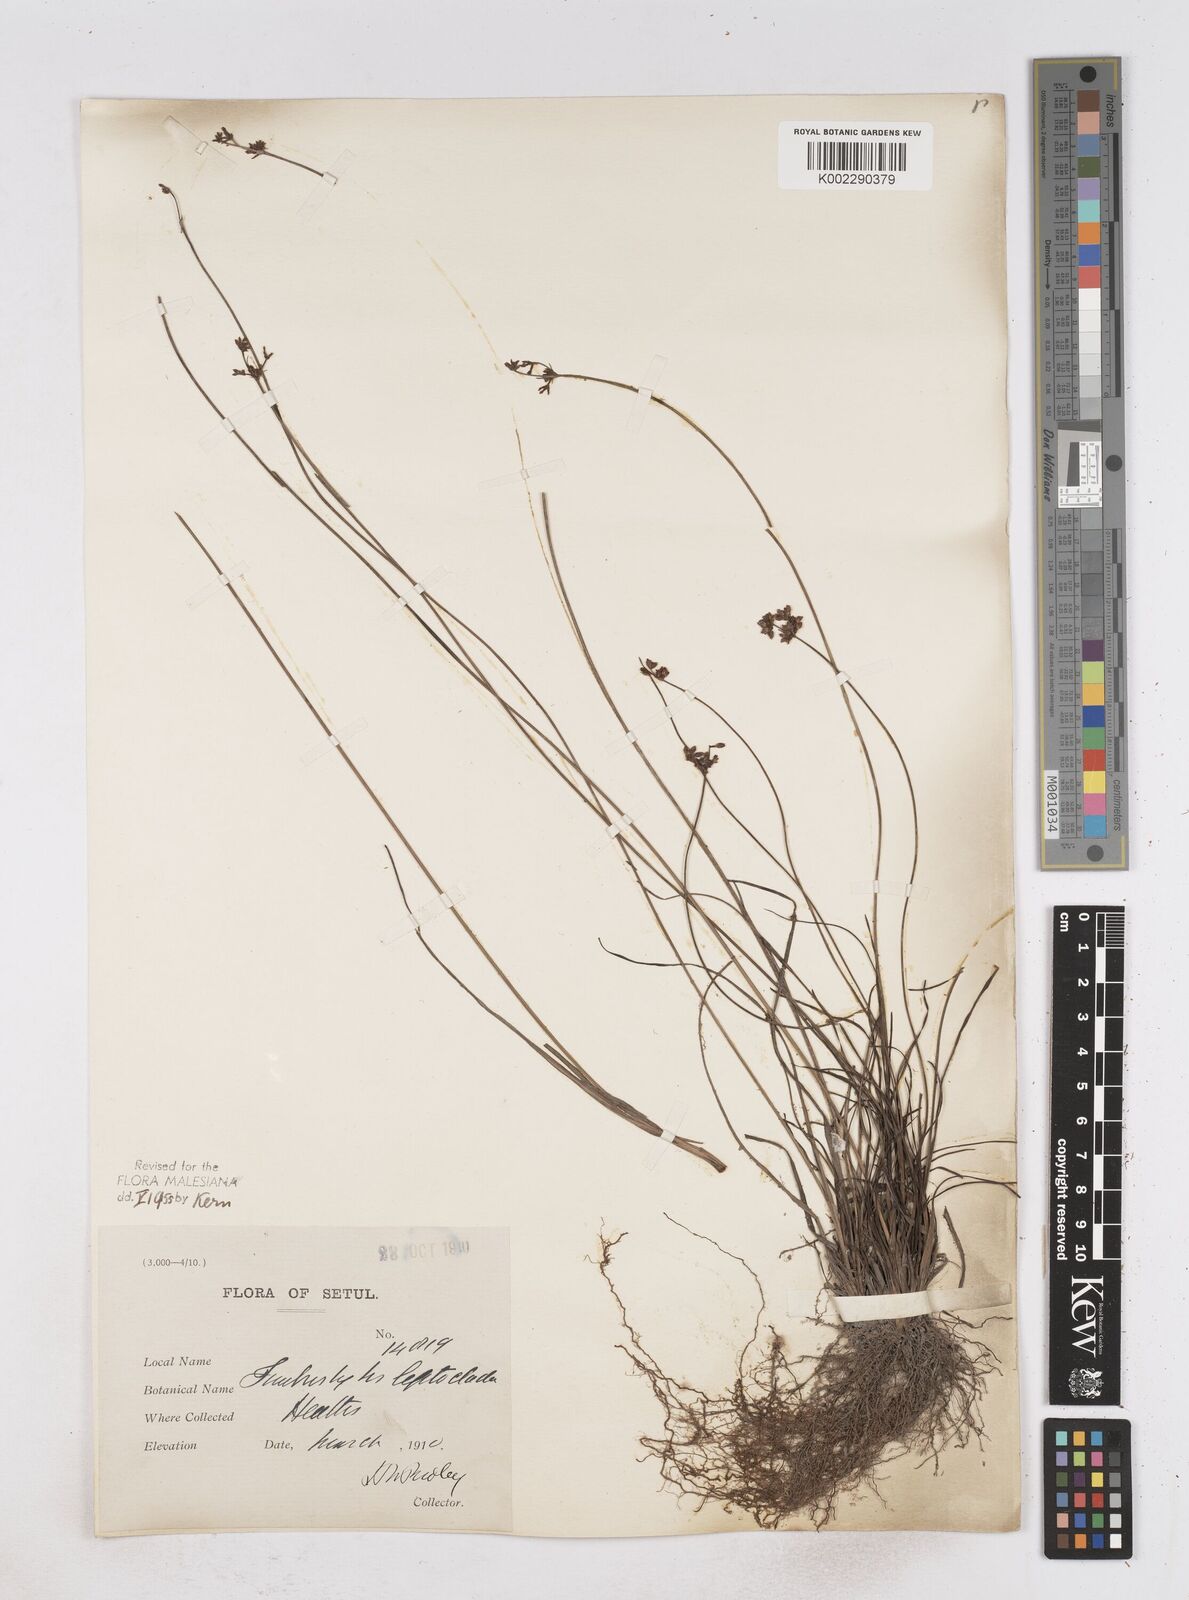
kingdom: Plantae
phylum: Tracheophyta
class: Liliopsida
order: Poales
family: Cyperaceae
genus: Fimbristylis
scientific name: Fimbristylis leptoclada
